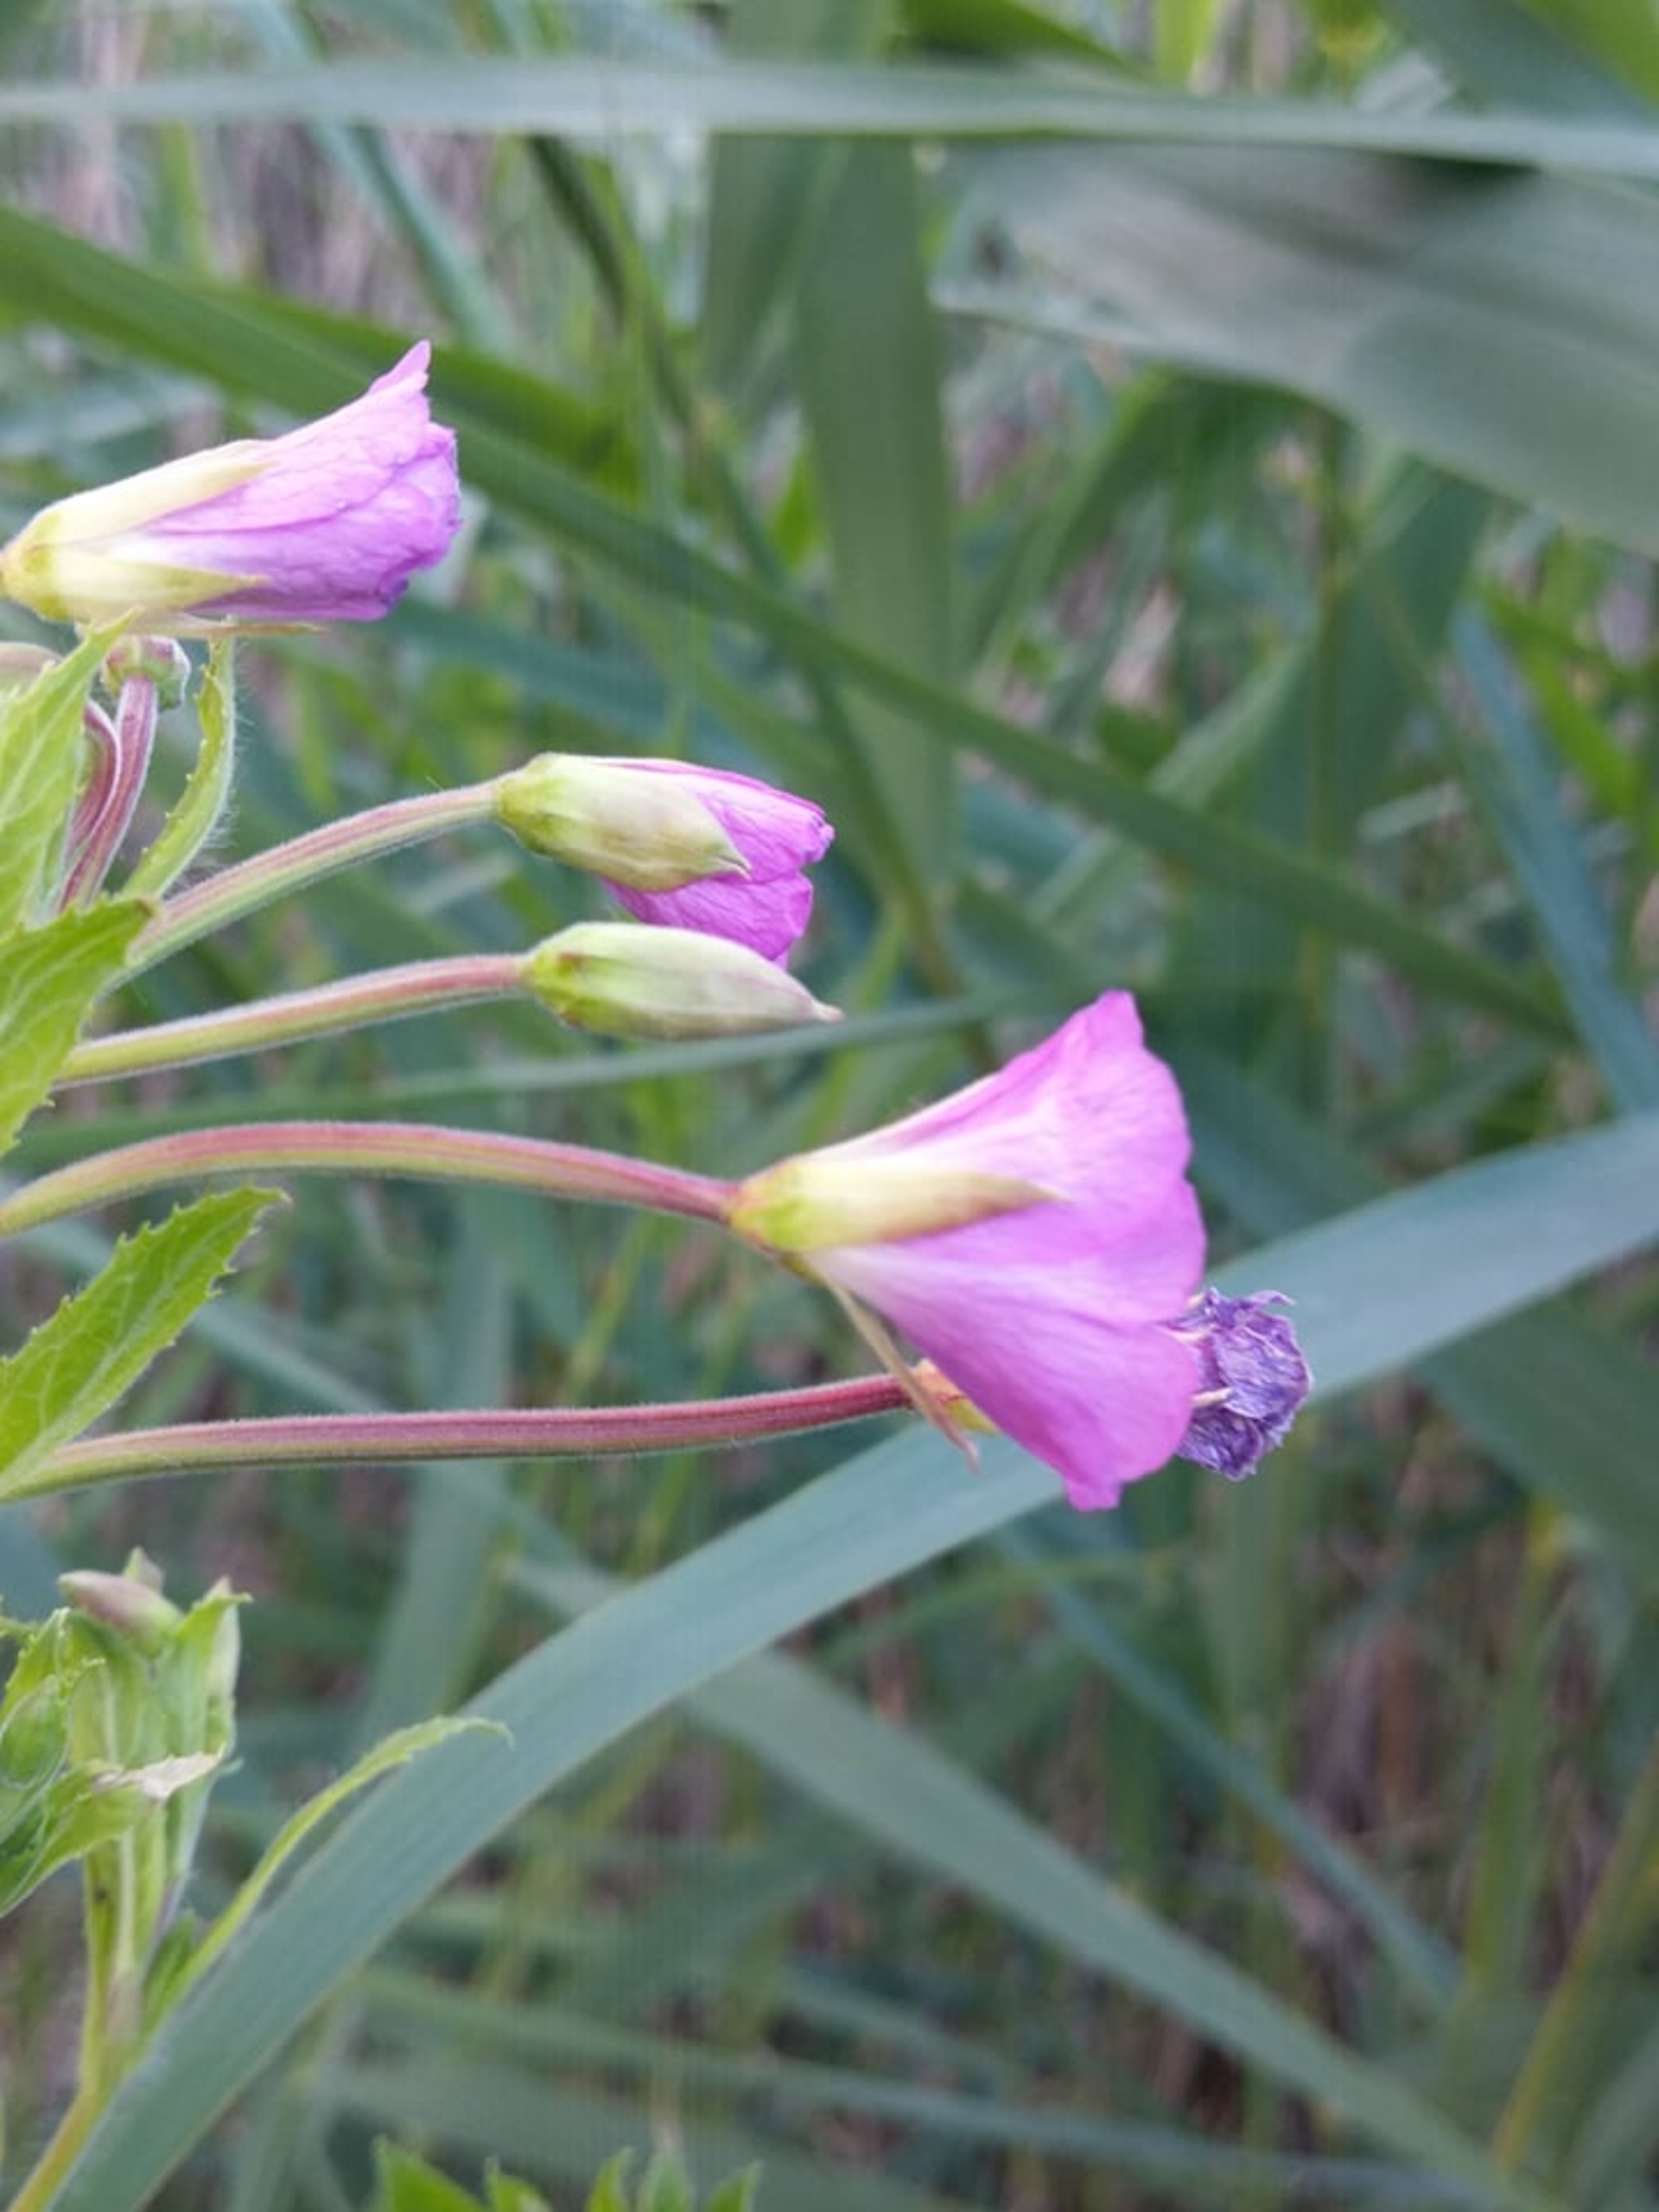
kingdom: Plantae
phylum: Tracheophyta
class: Magnoliopsida
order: Myrtales
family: Onagraceae
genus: Epilobium
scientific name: Epilobium hirsutum
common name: Lådden dueurt
